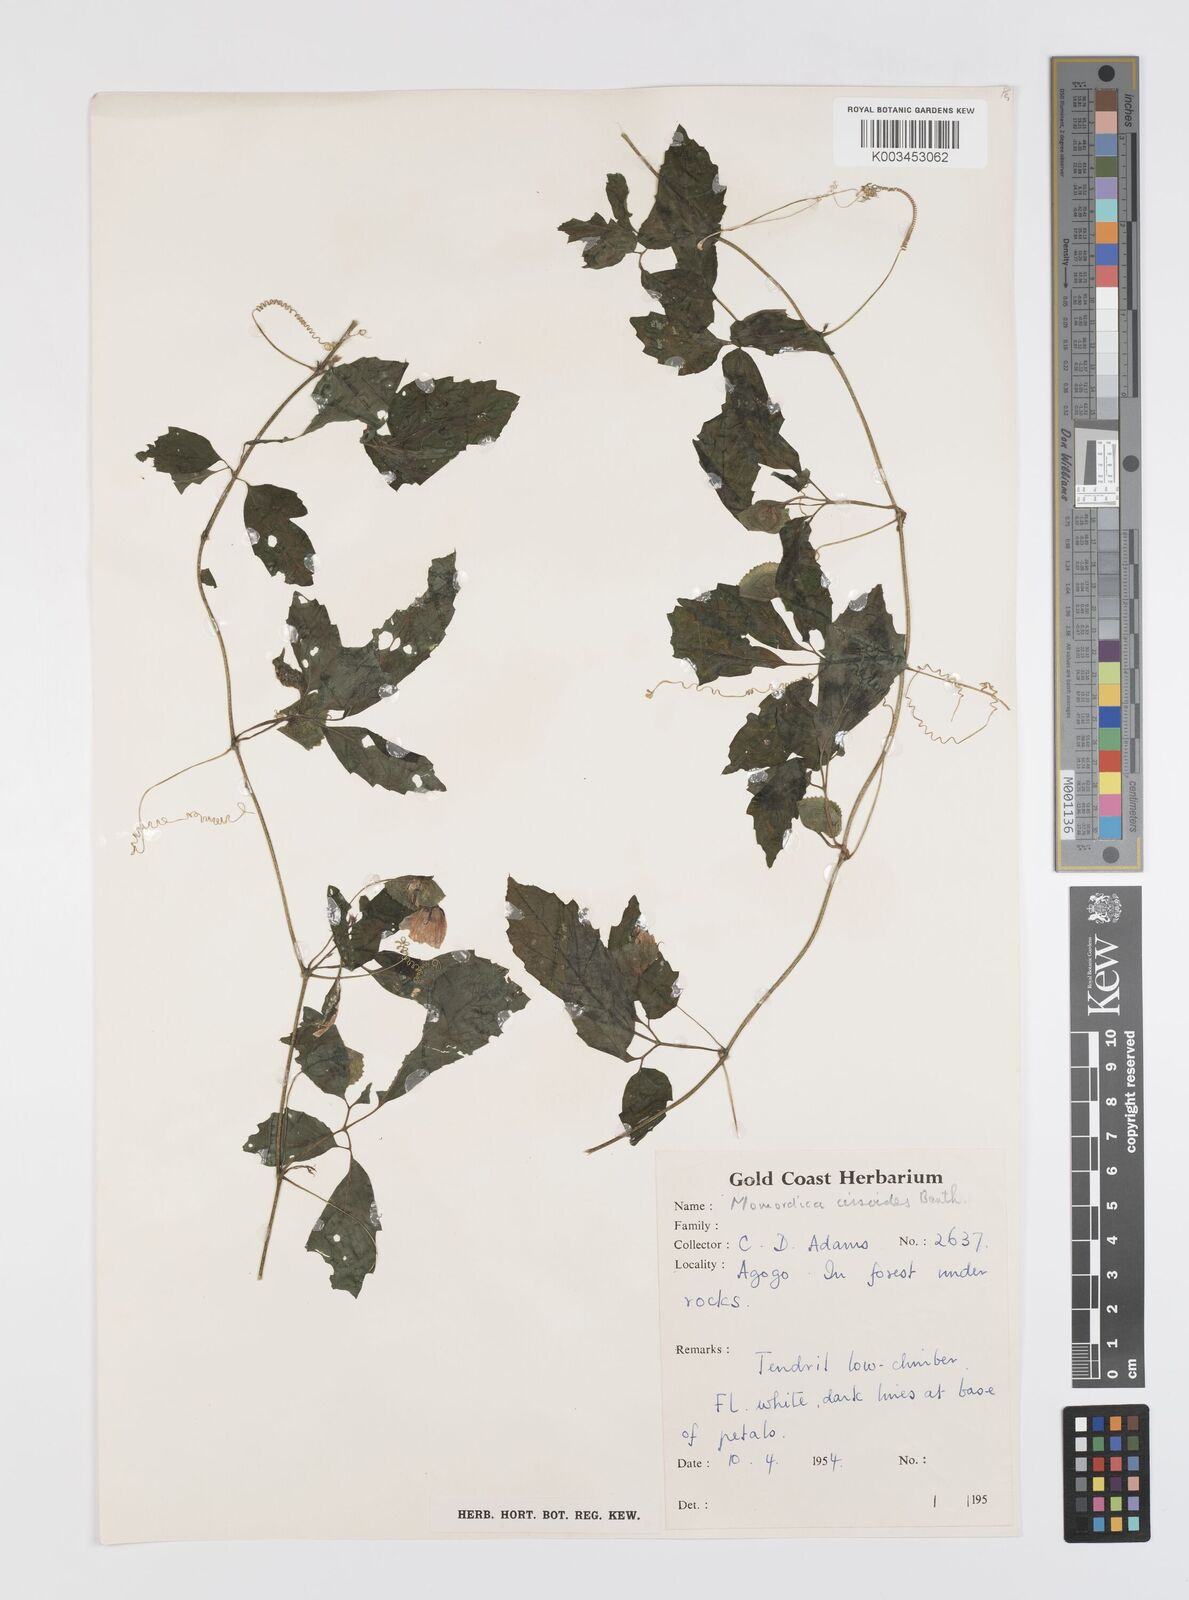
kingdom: Plantae
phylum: Tracheophyta
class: Magnoliopsida
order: Cucurbitales
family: Cucurbitaceae
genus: Momordica
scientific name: Momordica cissoides
